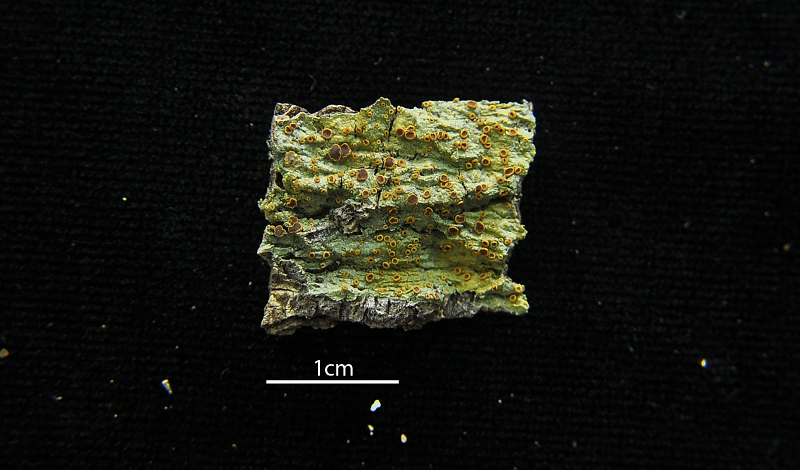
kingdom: Fungi
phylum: Ascomycota
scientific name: Ascomycota
